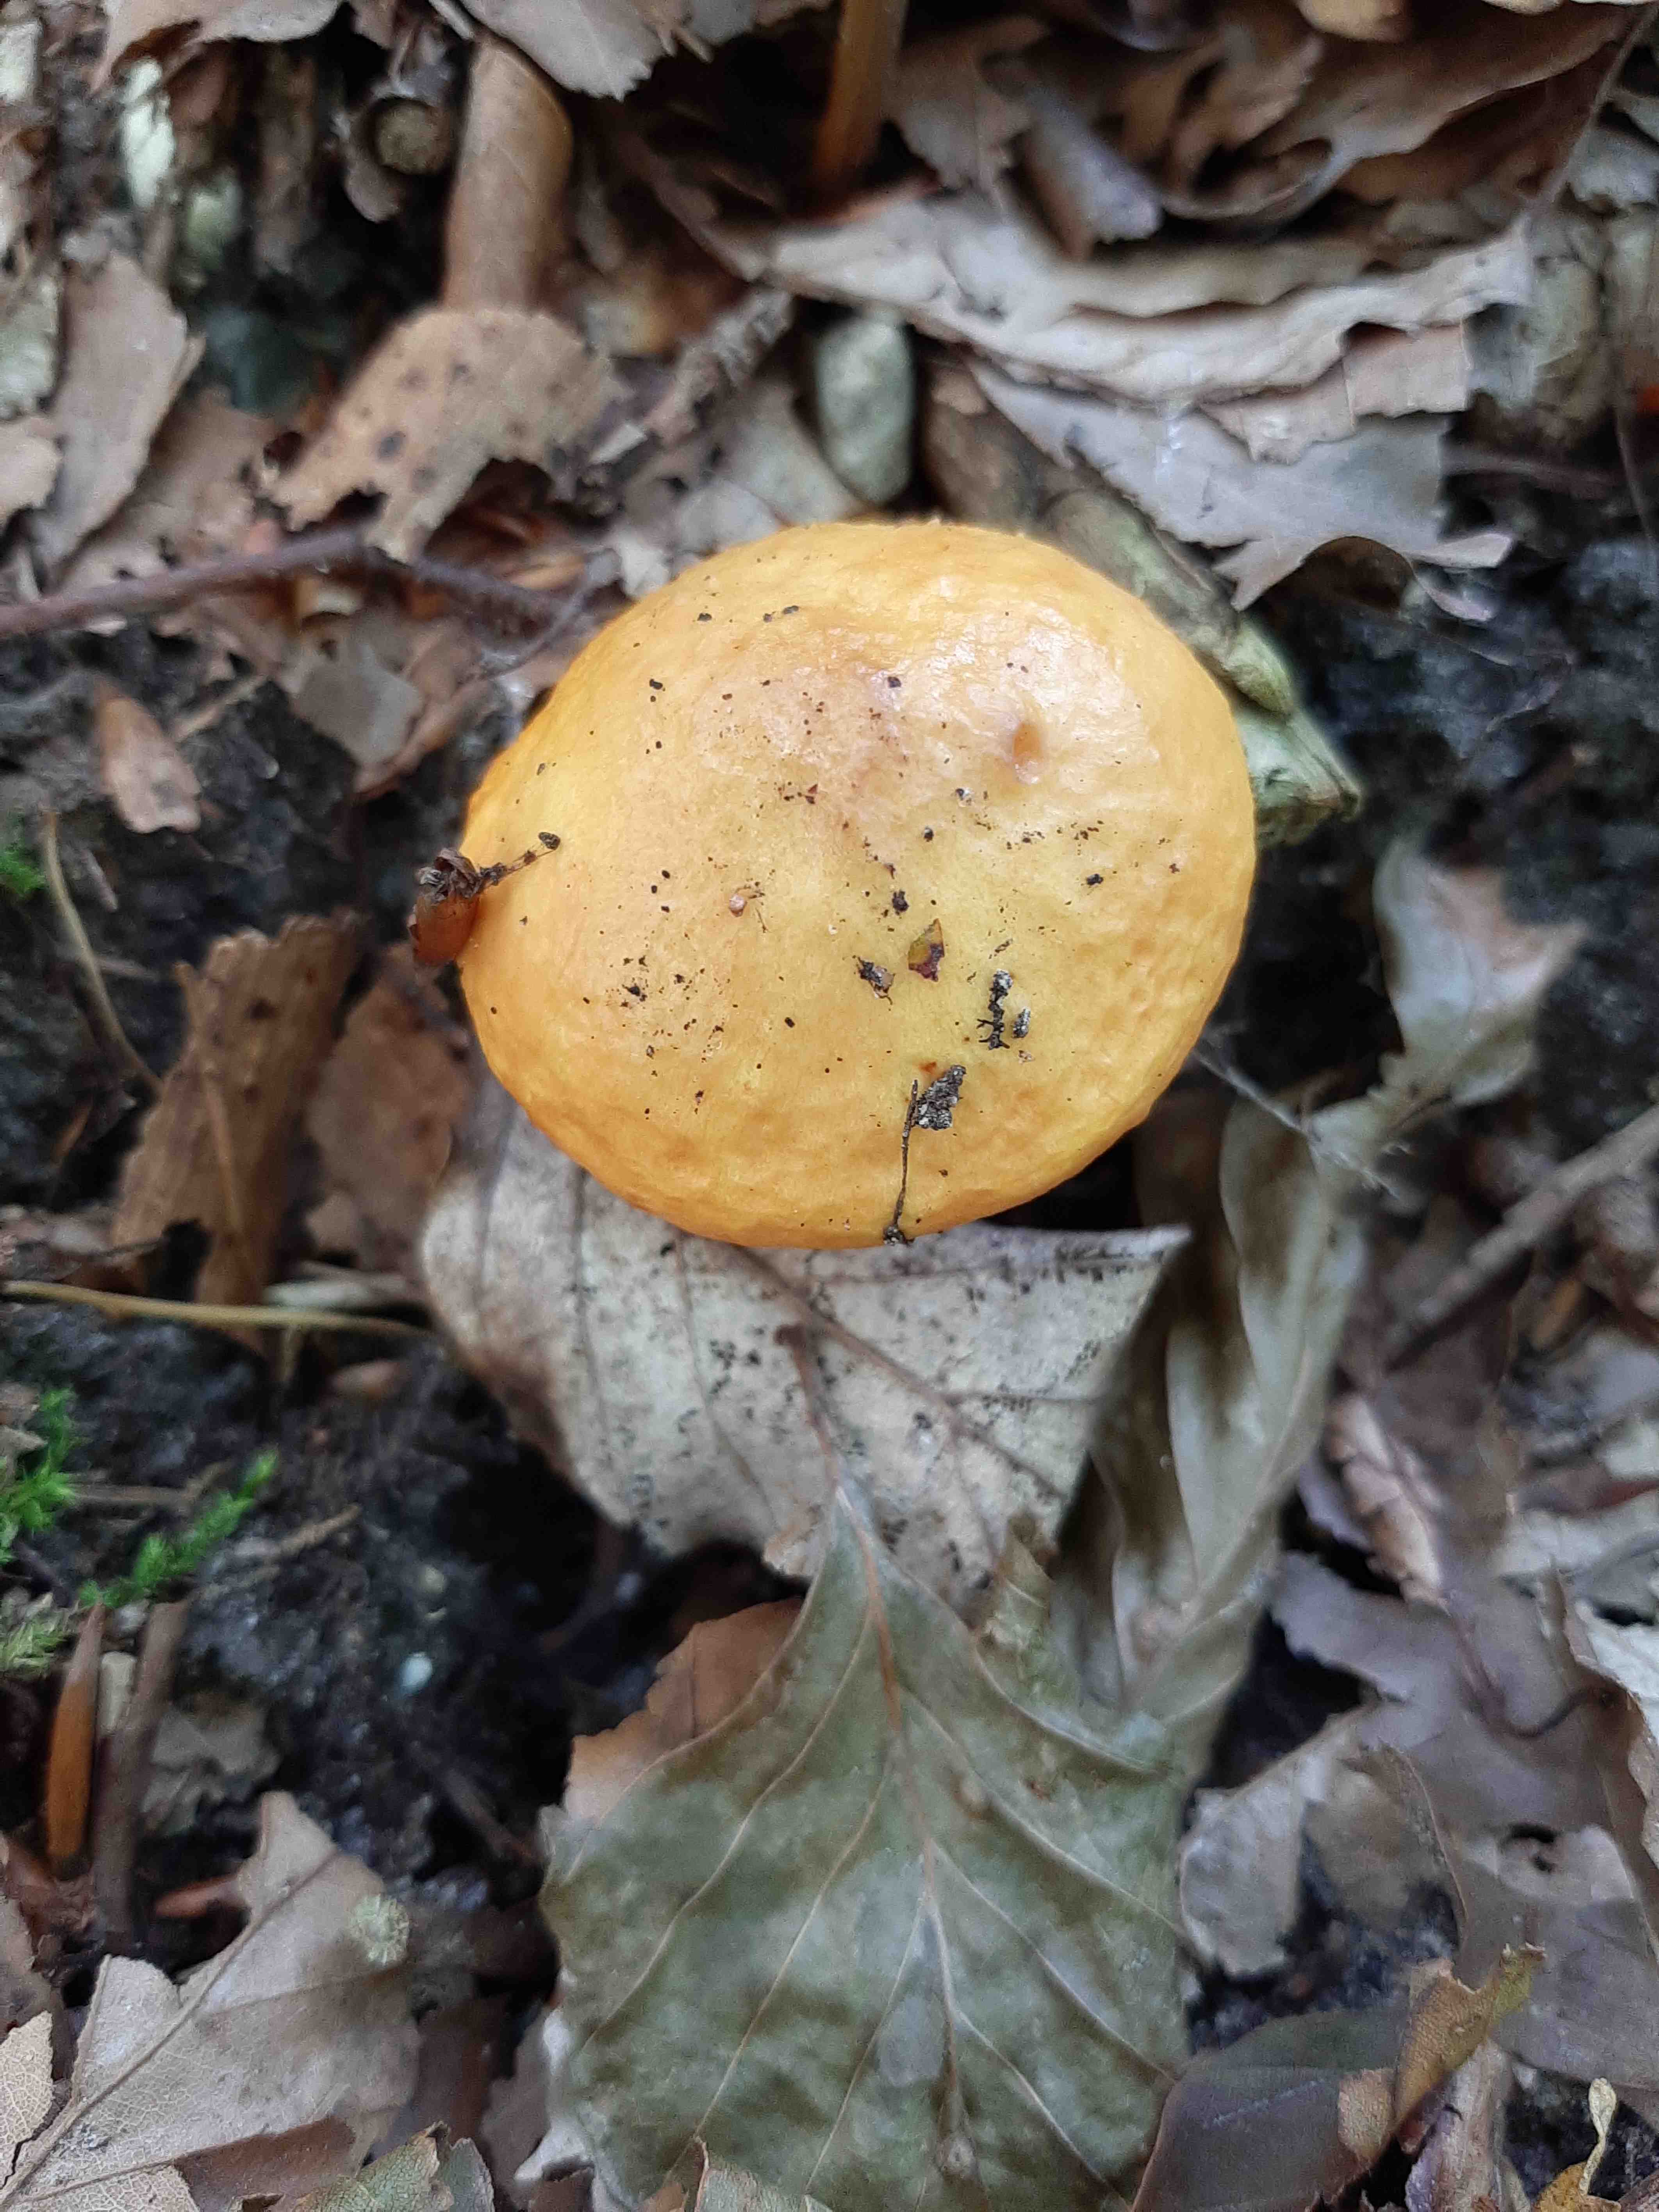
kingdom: Fungi
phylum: Basidiomycota
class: Agaricomycetes
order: Boletales
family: Suillaceae
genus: Suillus
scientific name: Suillus grevillei
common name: lærke-slimrørhat
